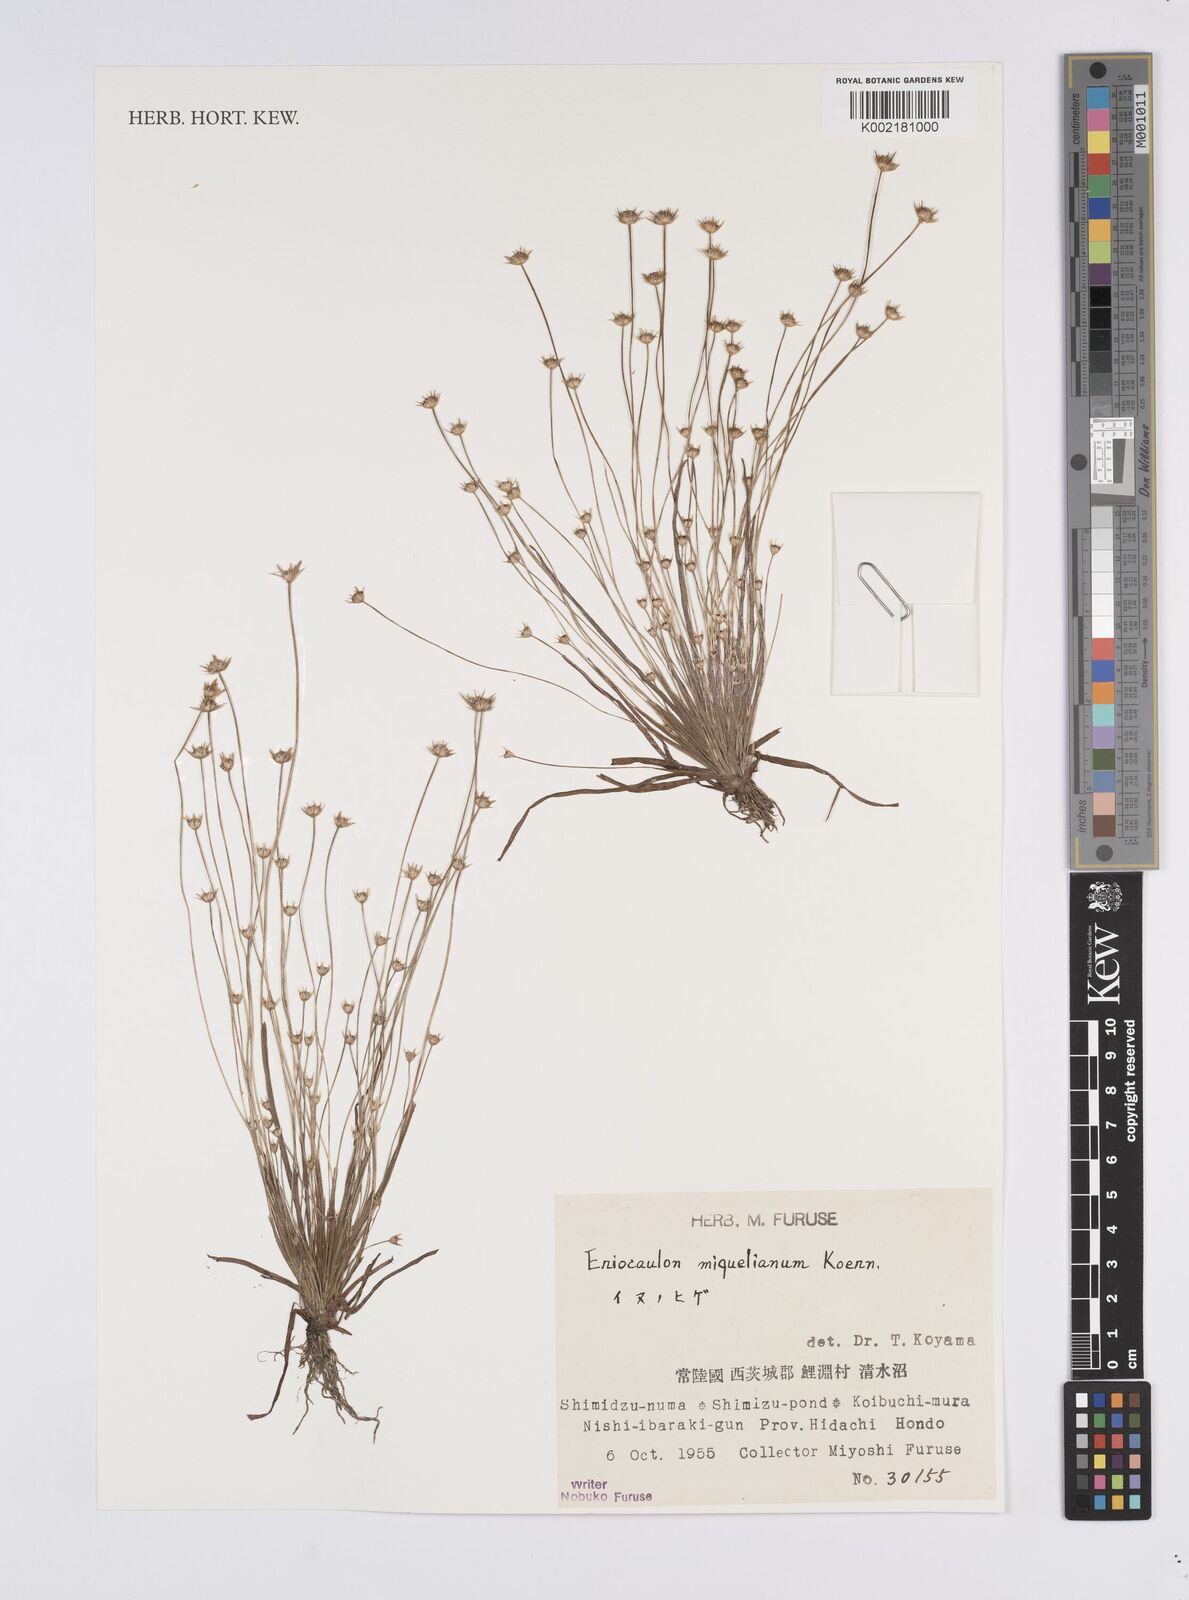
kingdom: Plantae
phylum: Tracheophyta
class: Liliopsida
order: Poales
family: Eriocaulaceae
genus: Eriocaulon
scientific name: Eriocaulon miquelianum
